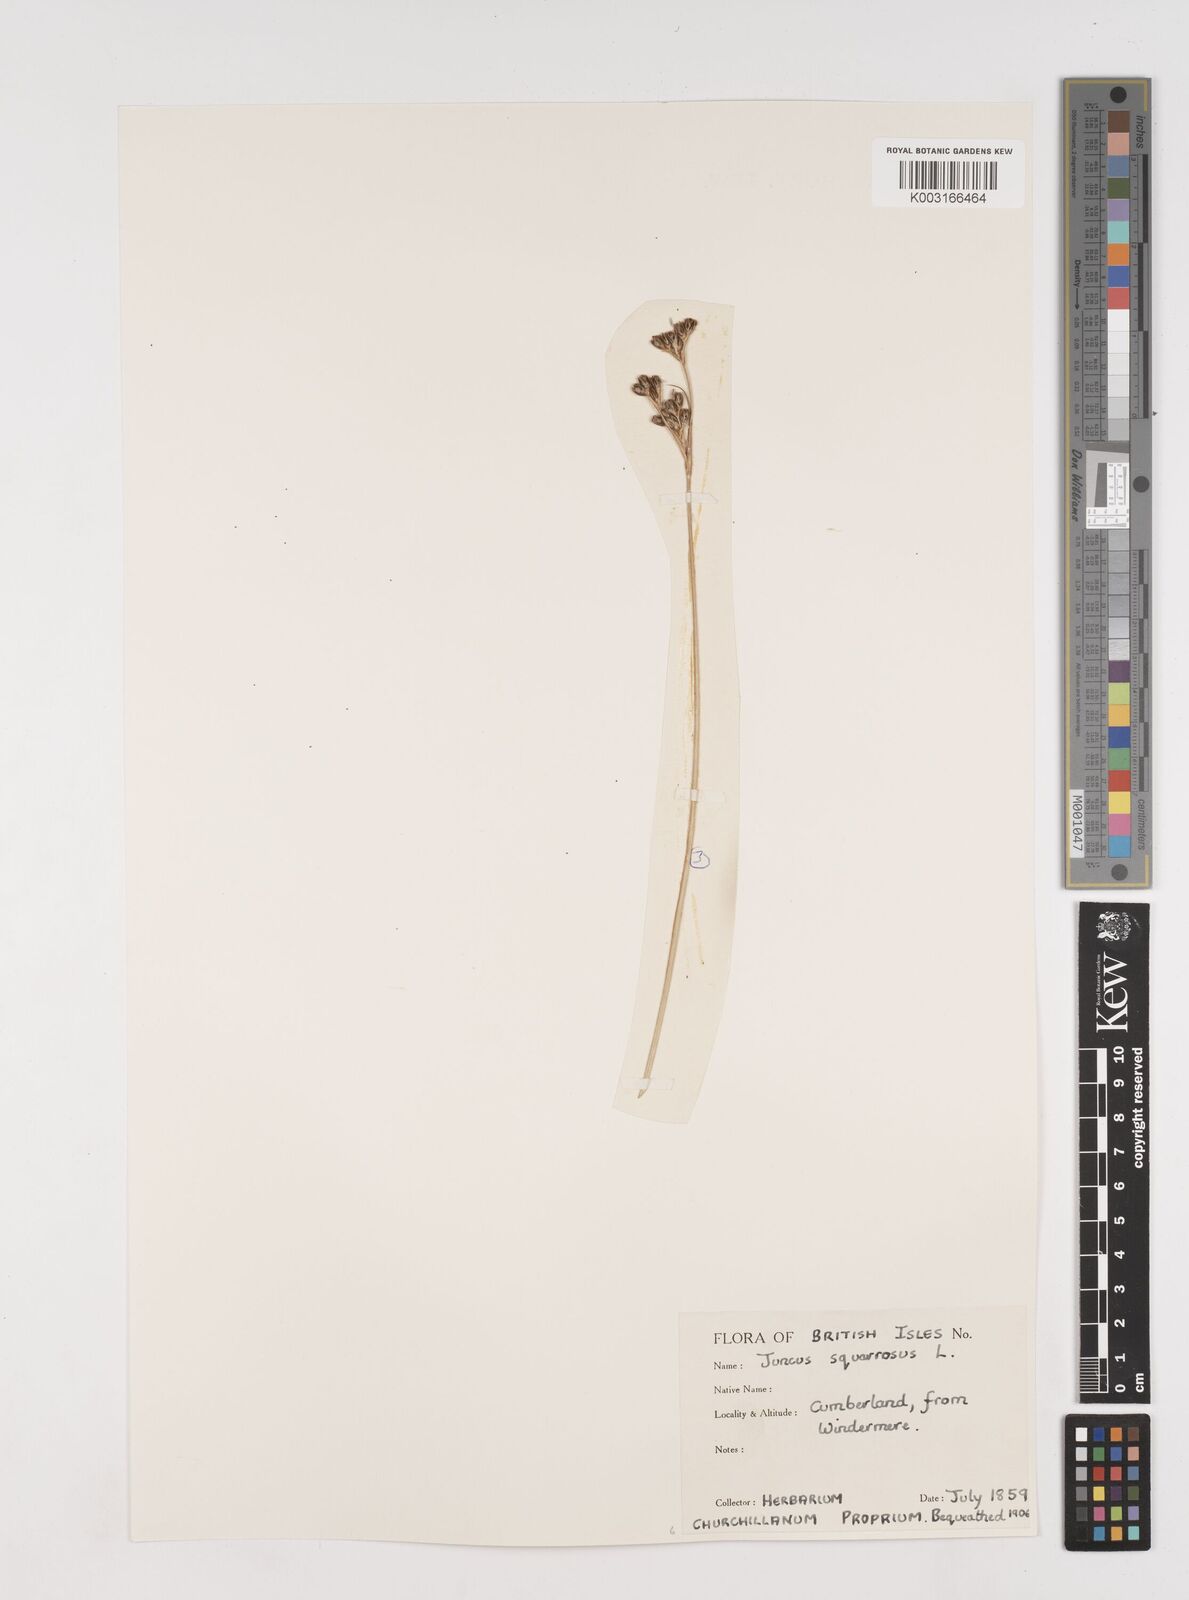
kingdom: Plantae
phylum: Tracheophyta
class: Liliopsida
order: Poales
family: Juncaceae
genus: Juncus
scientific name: Juncus squarrosus
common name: Heath rush
